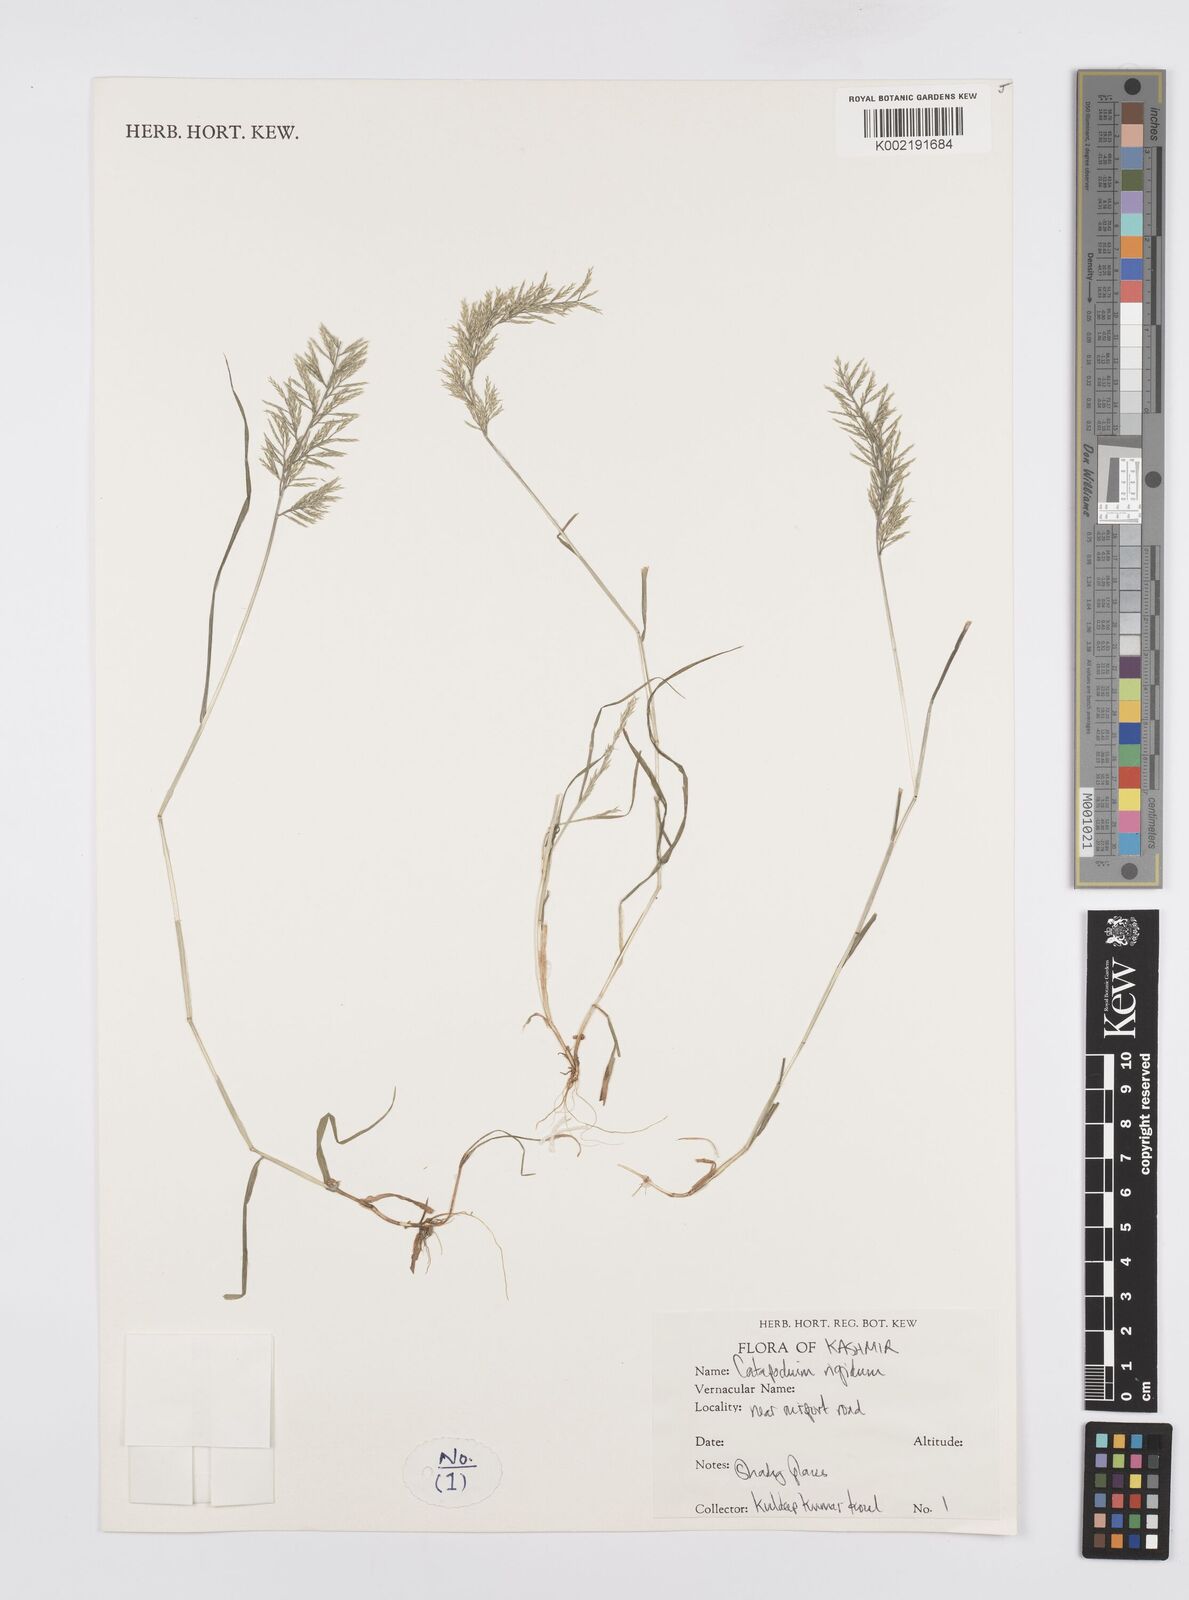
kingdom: Plantae
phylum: Tracheophyta
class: Liliopsida
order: Poales
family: Poaceae
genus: Catapodium
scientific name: Catapodium rigidum
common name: Fern-grass
